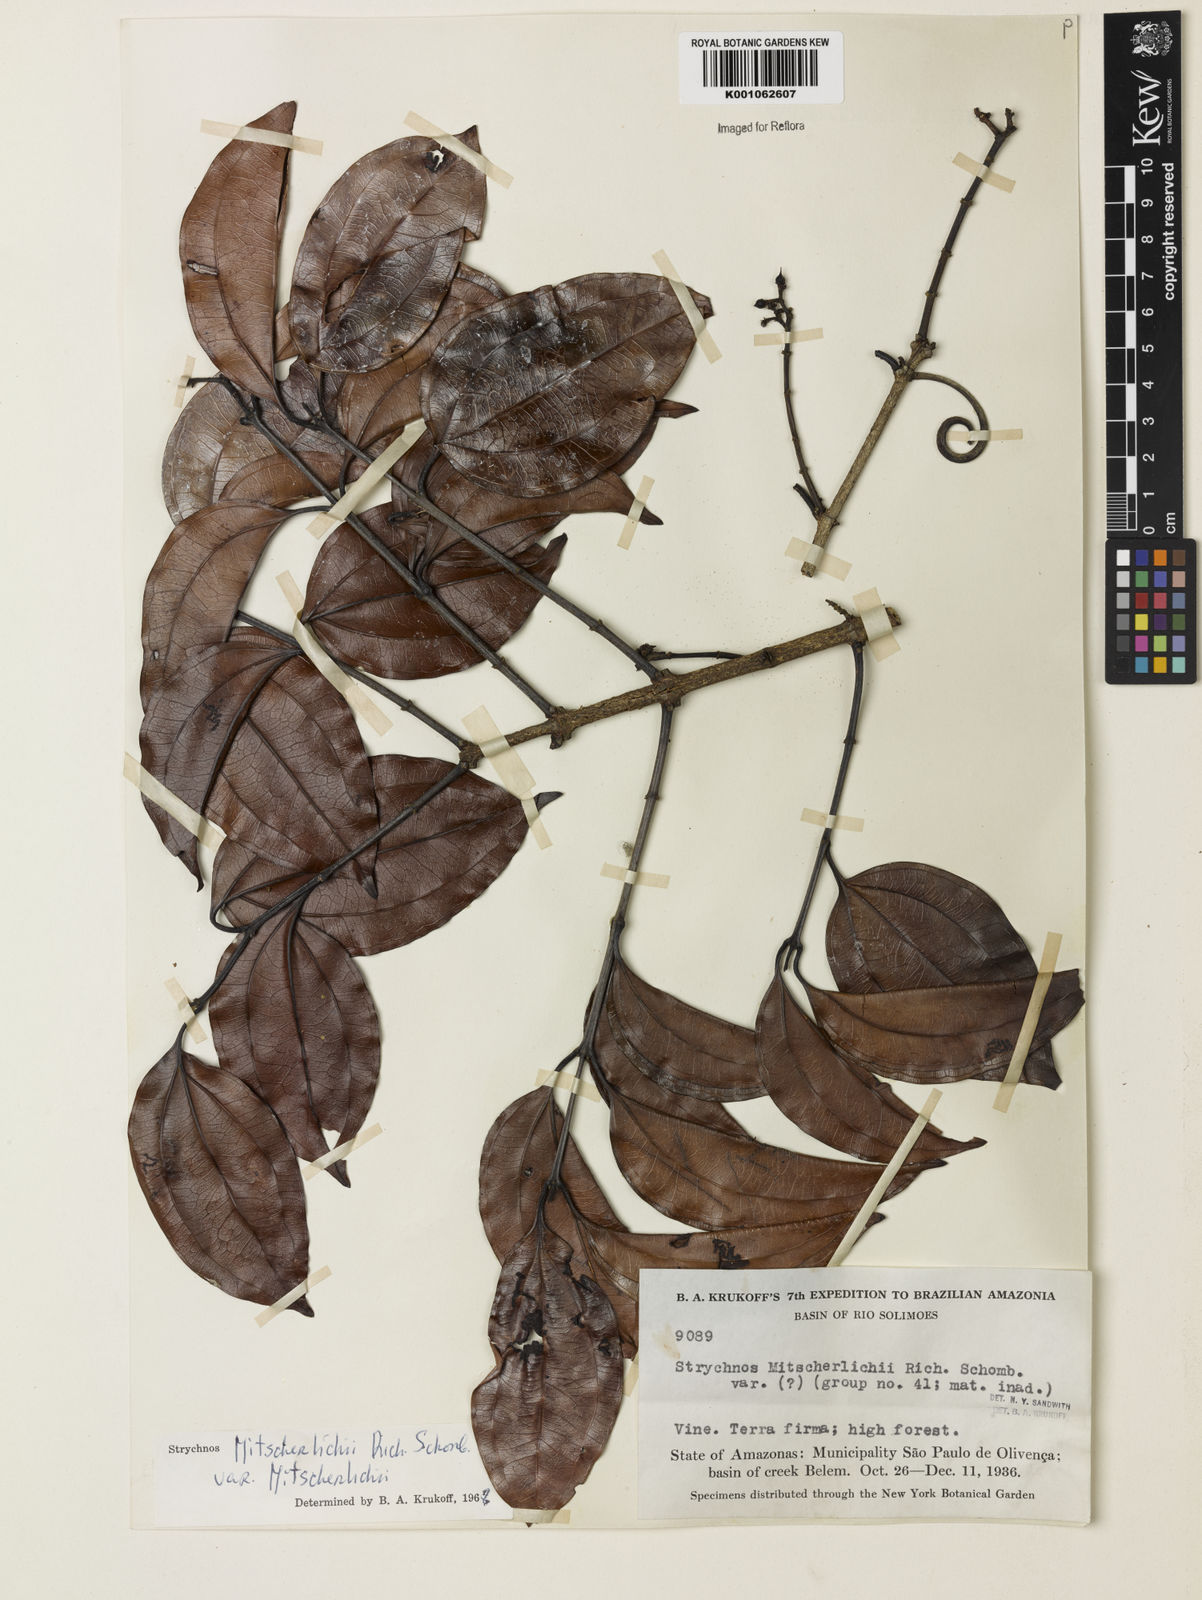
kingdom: Plantae
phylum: Tracheophyta
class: Magnoliopsida
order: Gentianales
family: Loganiaceae
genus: Strychnos
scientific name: Strychnos mitscherlichii
